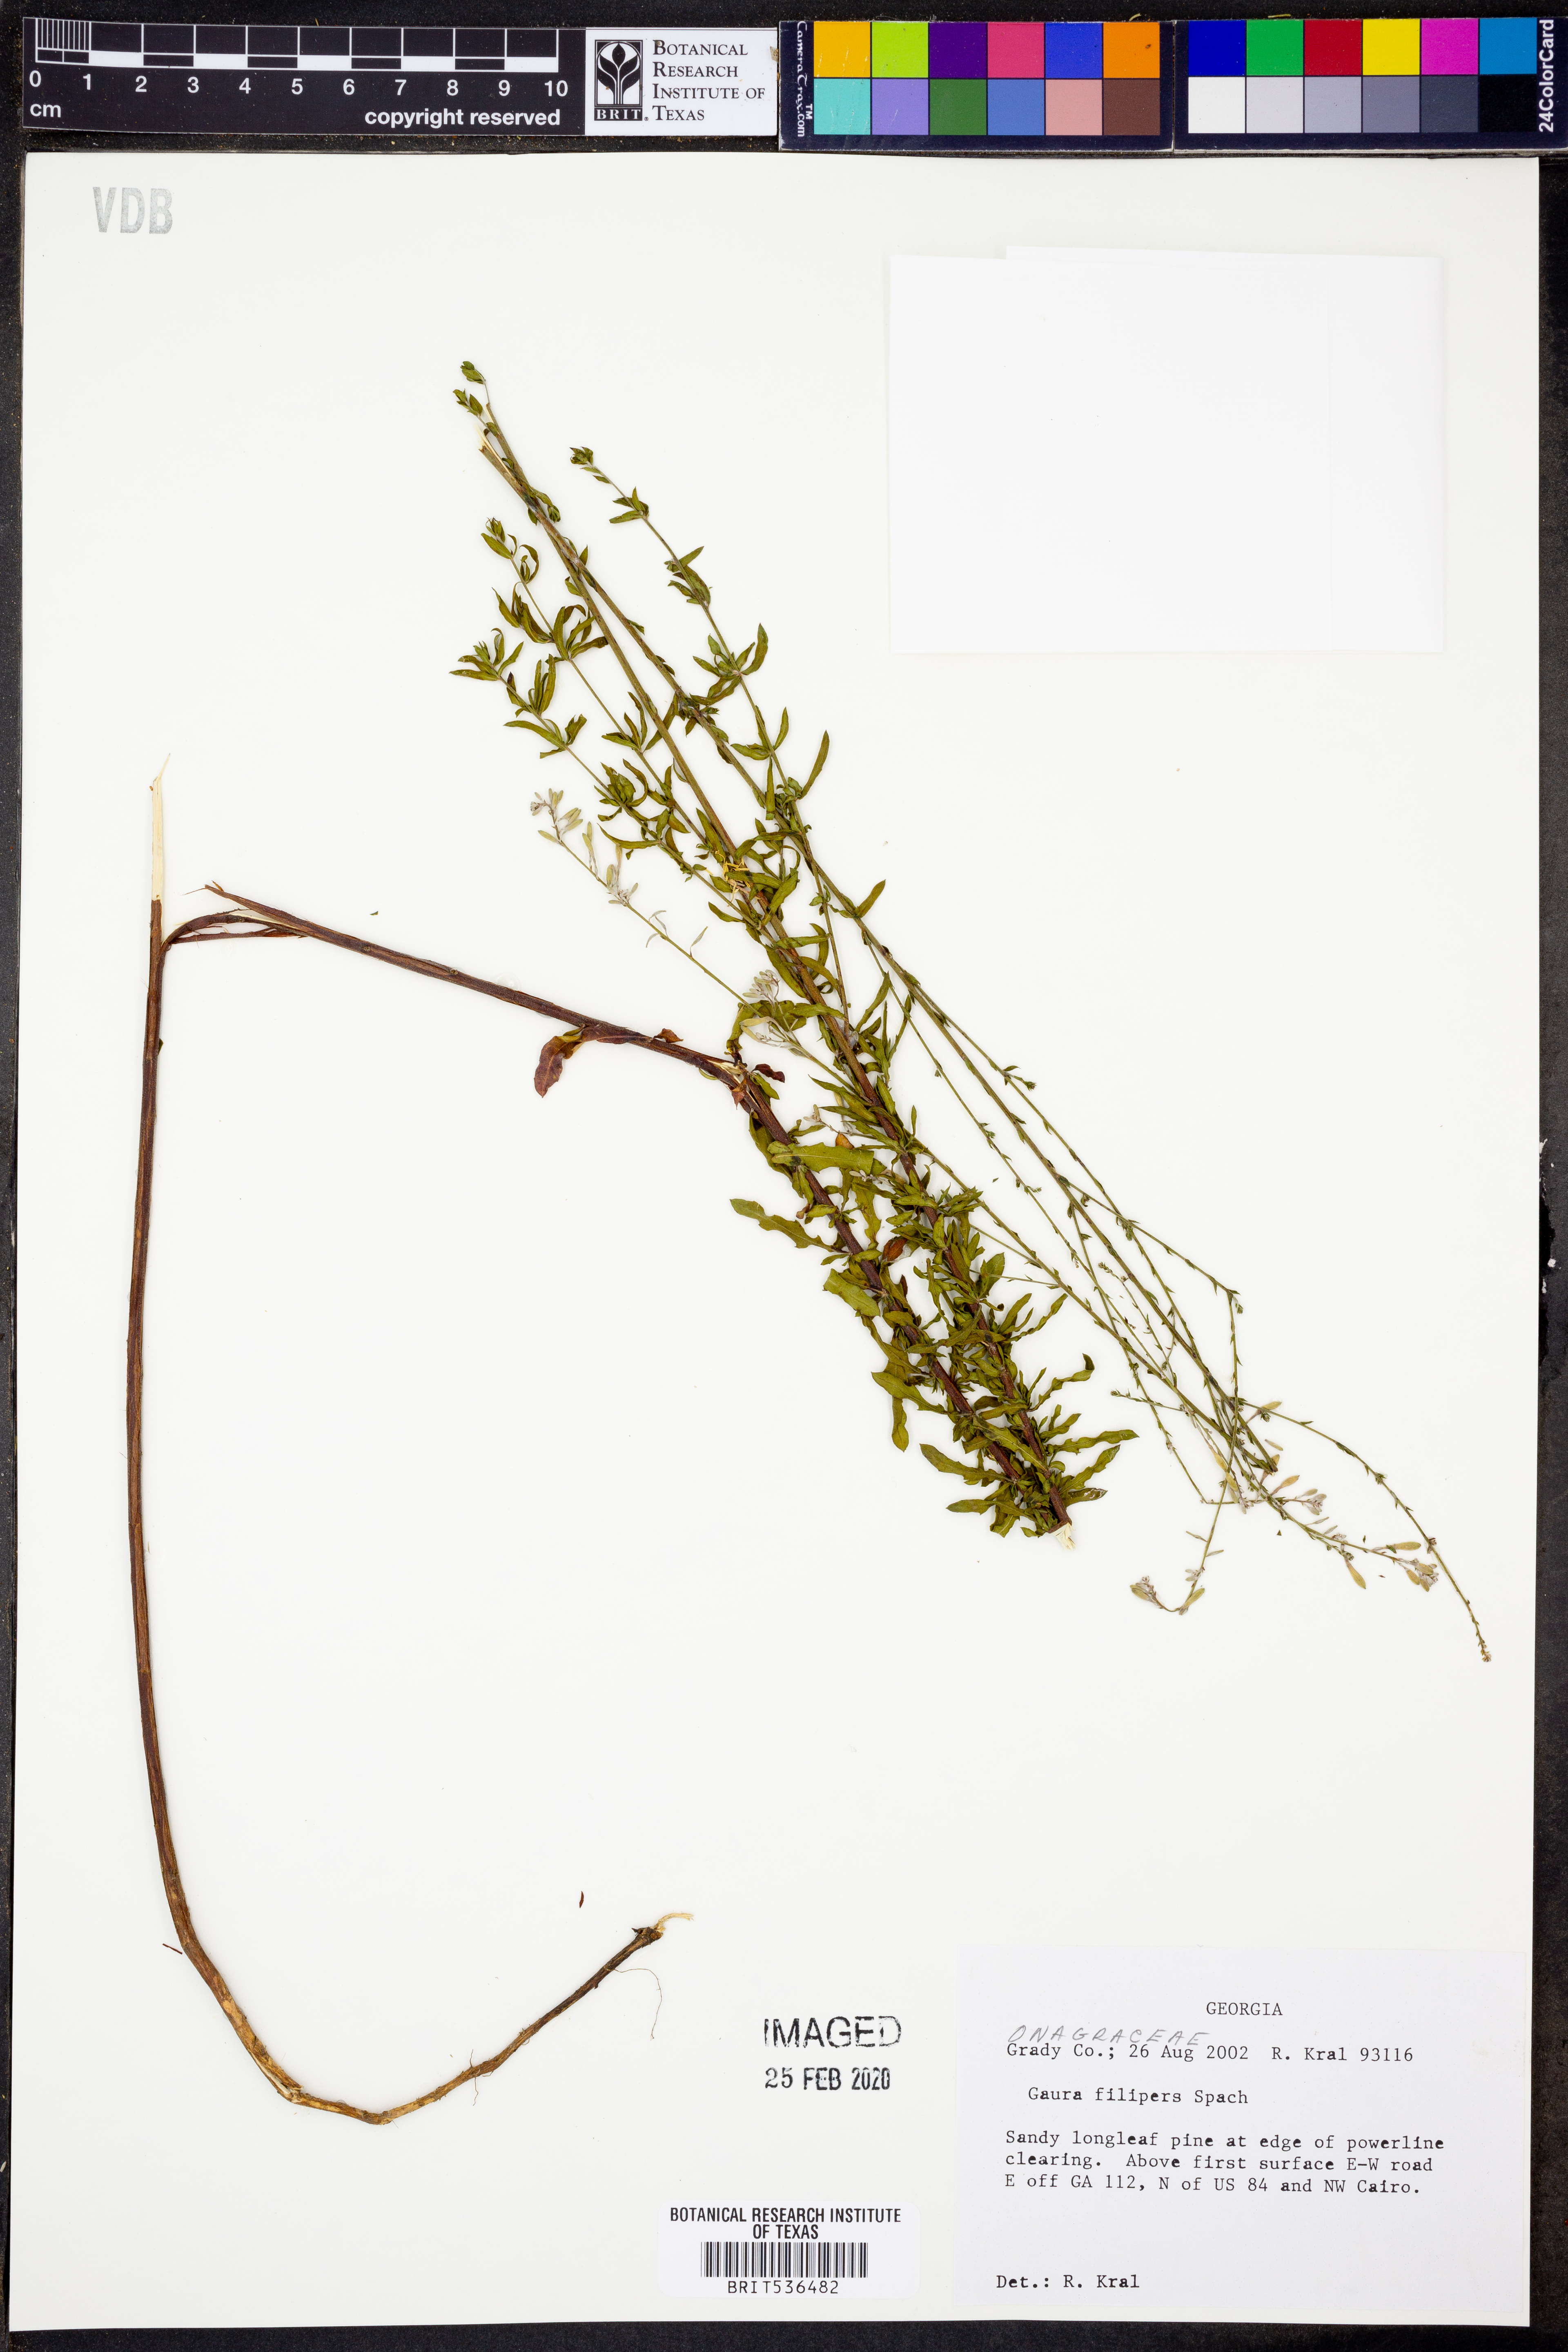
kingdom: Plantae
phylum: Tracheophyta
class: Magnoliopsida
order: Myrtales
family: Onagraceae
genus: Oenothera
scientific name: Oenothera filipes
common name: Slenderstalk beeblossom
